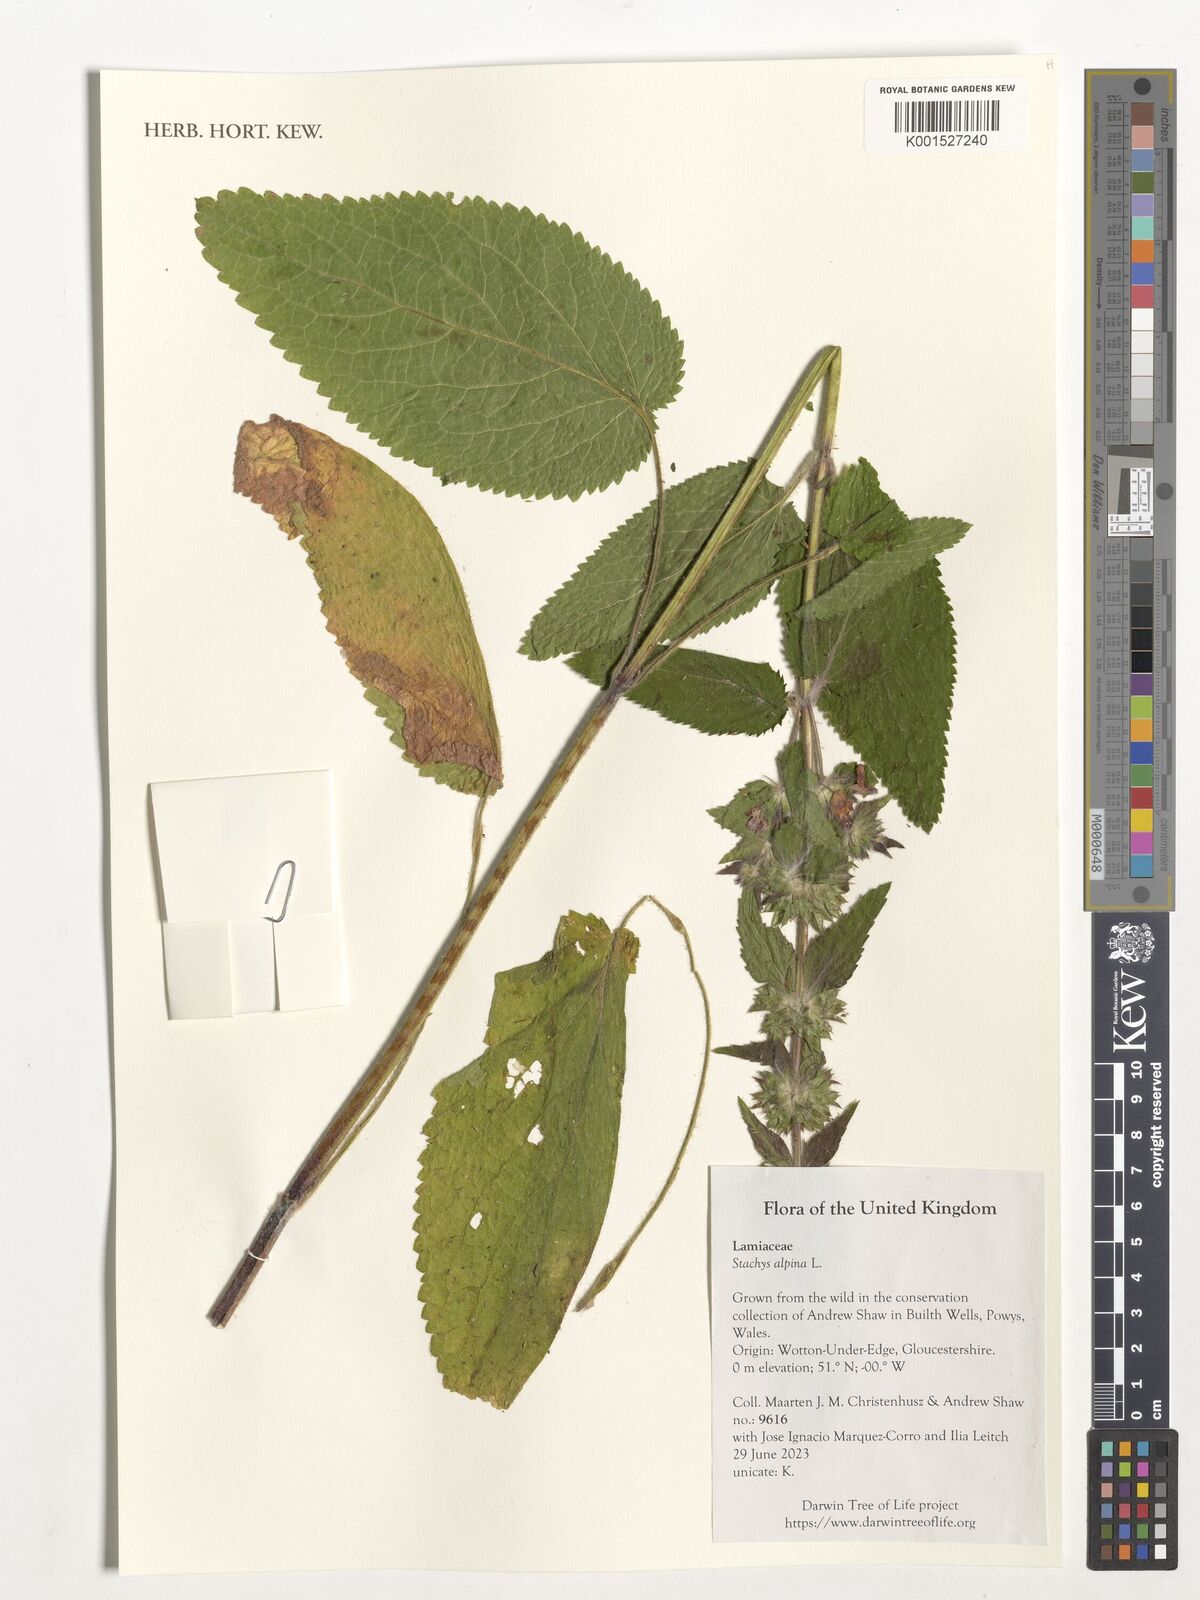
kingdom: Plantae
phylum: Tracheophyta
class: Magnoliopsida
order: Lamiales
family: Lamiaceae
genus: Stachys
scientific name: Stachys alpina
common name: Limestone woundwort
